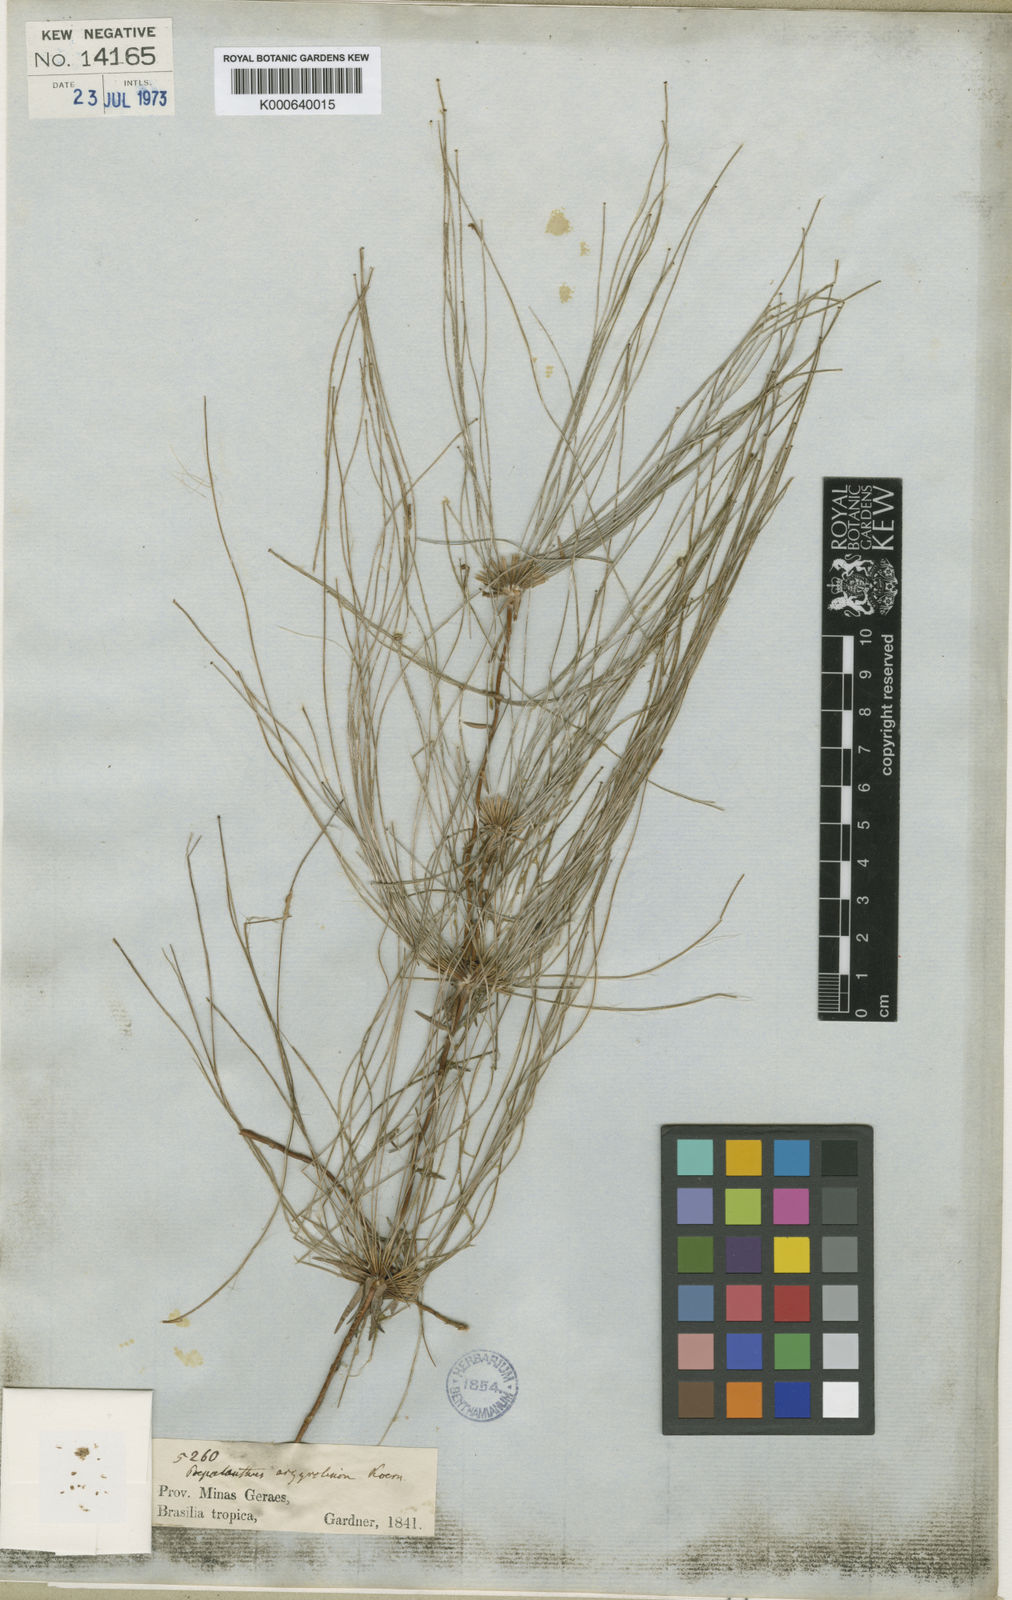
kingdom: Plantae
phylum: Tracheophyta
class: Liliopsida
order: Poales
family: Eriocaulaceae
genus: Paepalanthus
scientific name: Paepalanthus
